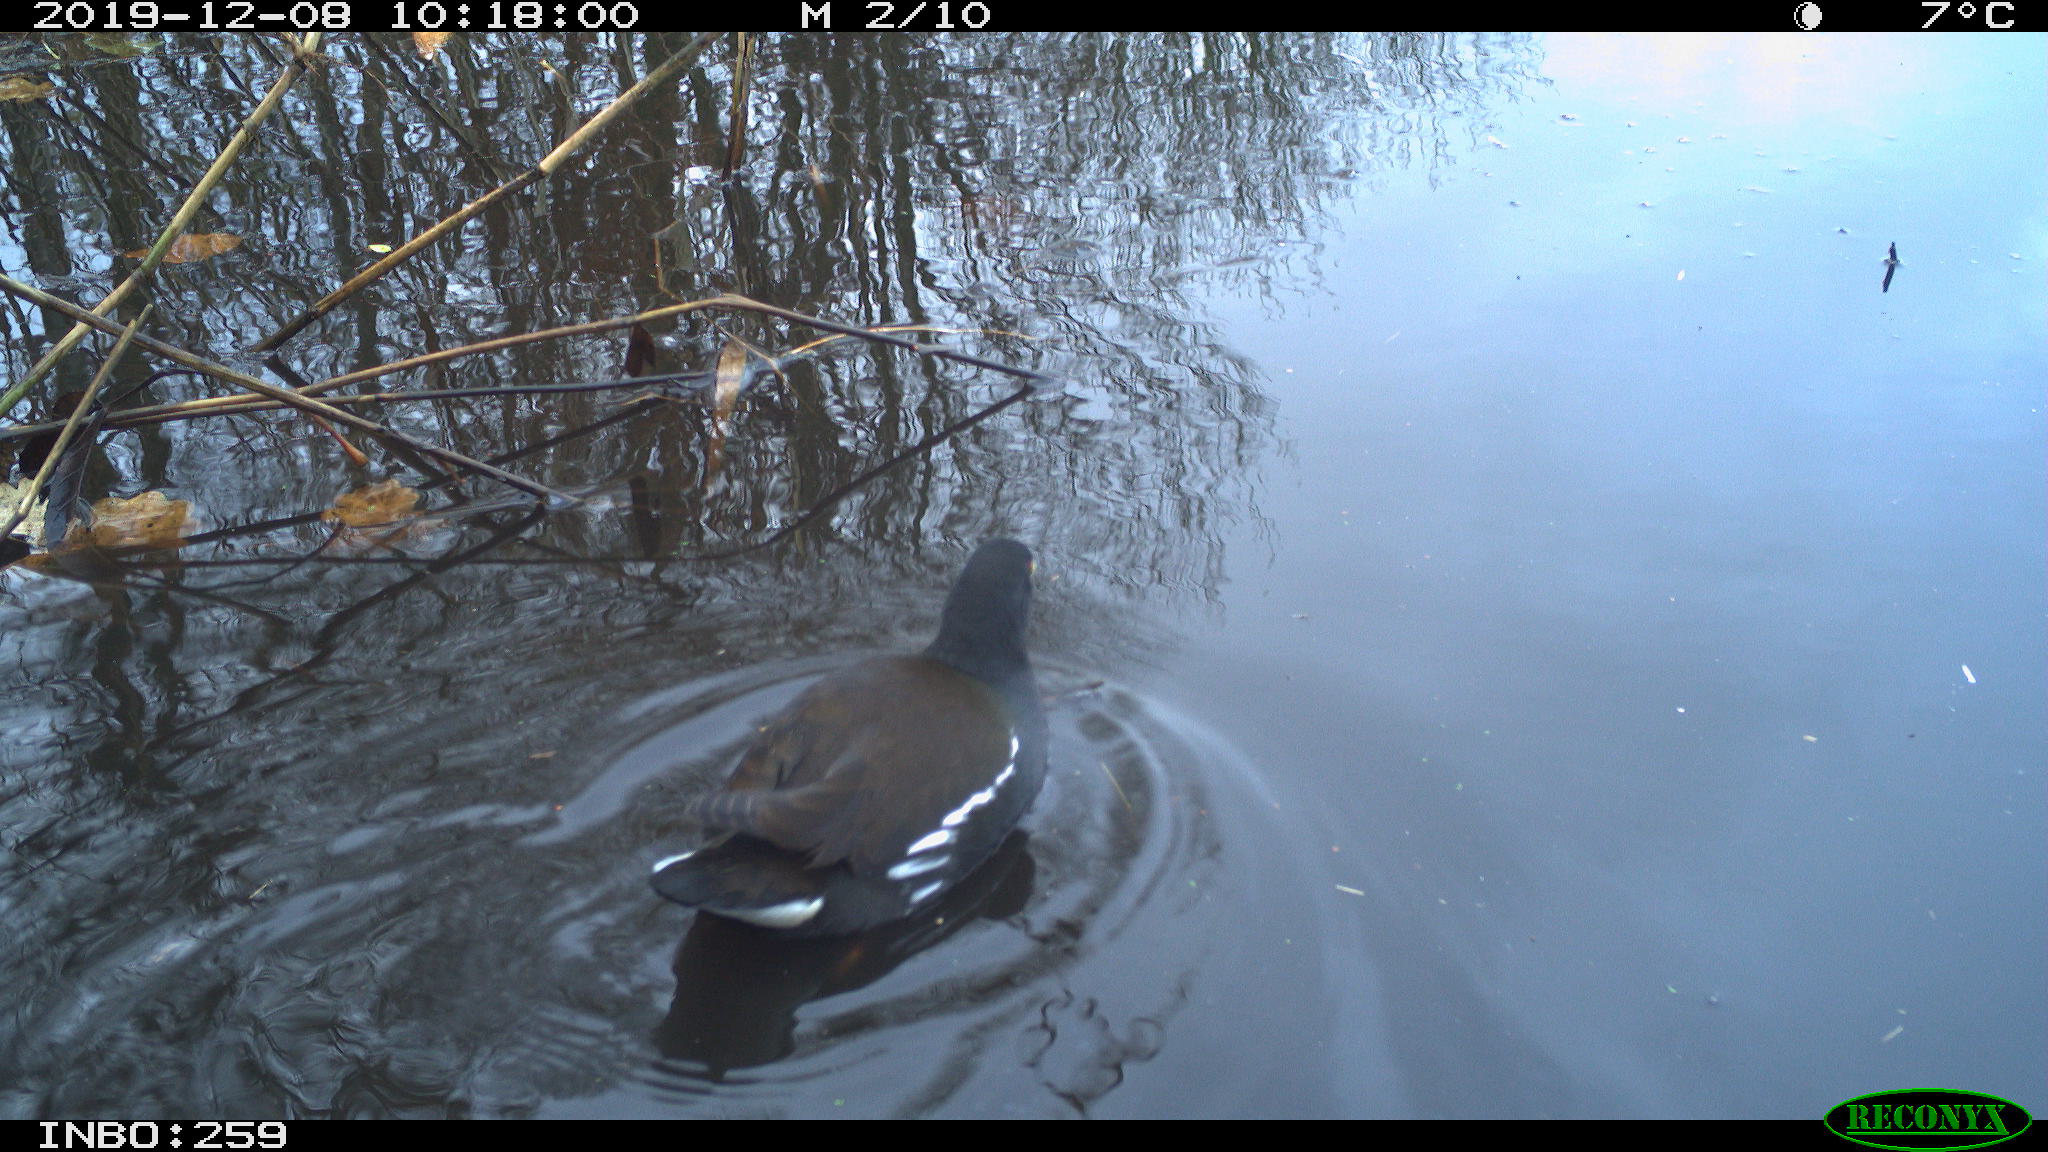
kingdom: Animalia
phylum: Chordata
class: Aves
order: Gruiformes
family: Rallidae
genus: Gallinula
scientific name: Gallinula chloropus
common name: Common moorhen
